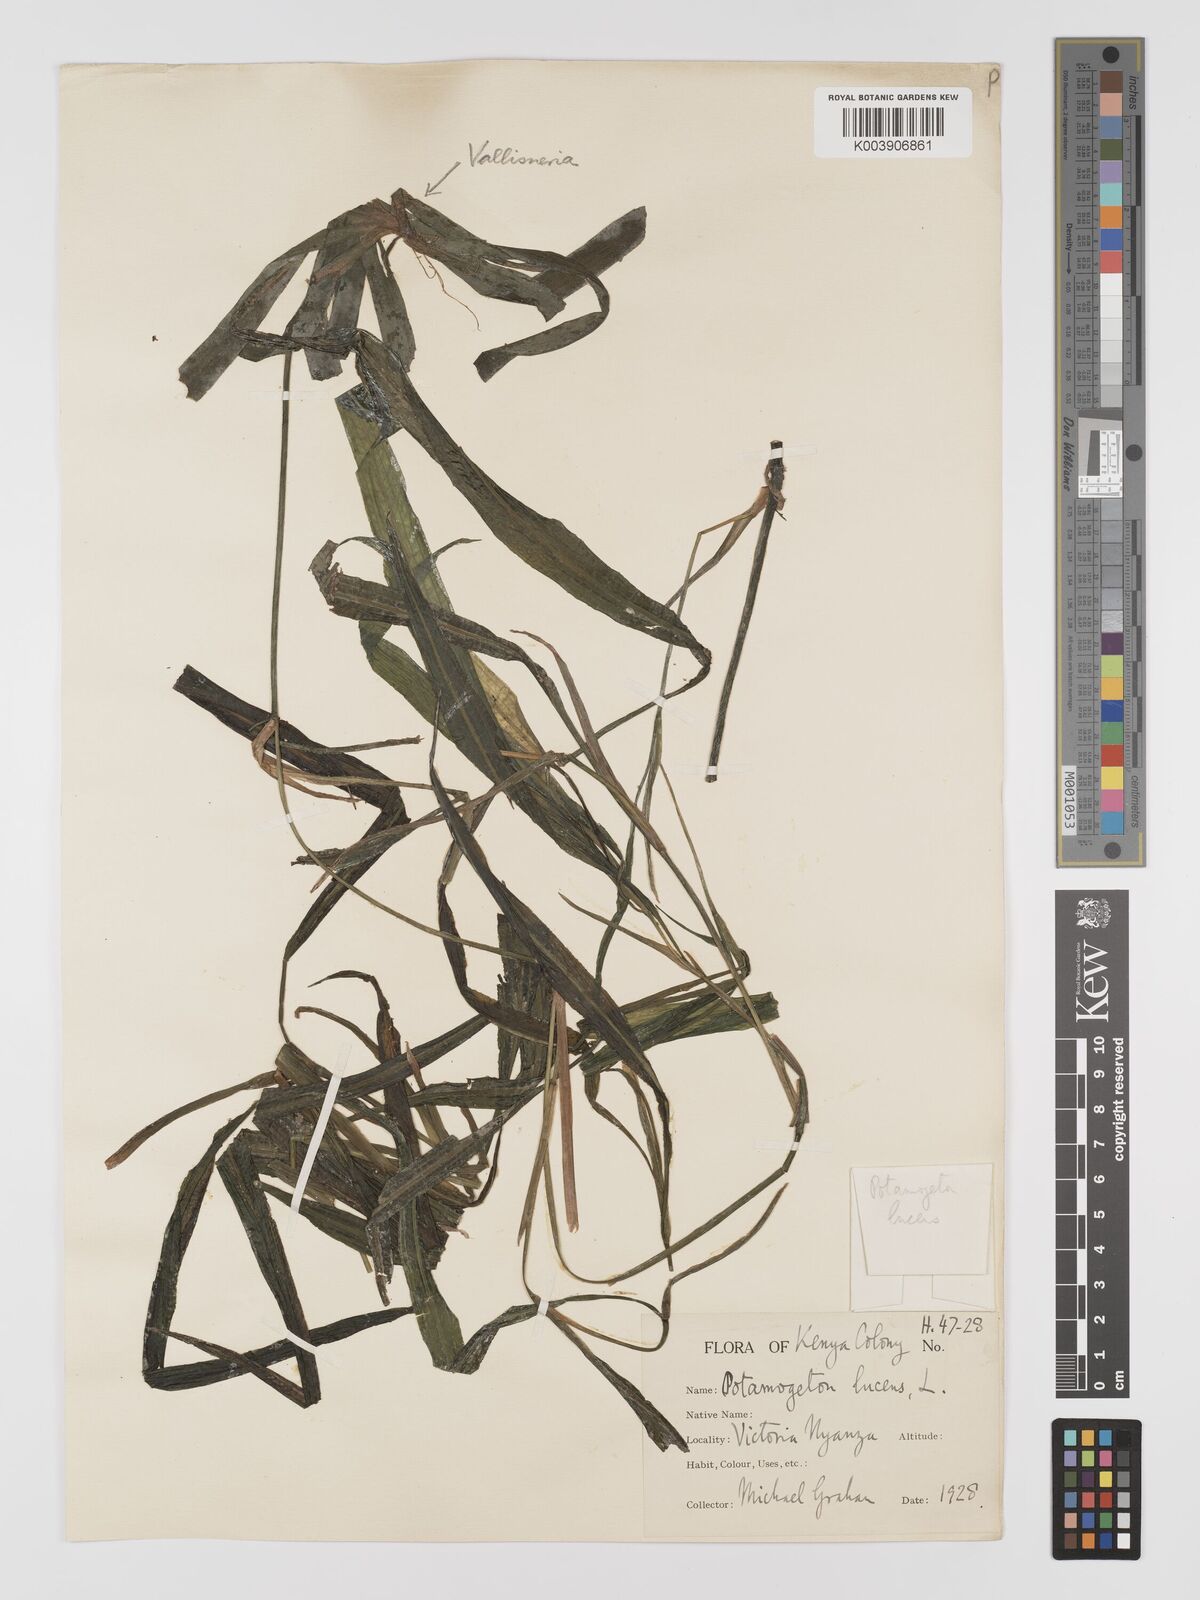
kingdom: Plantae
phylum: Tracheophyta
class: Liliopsida
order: Alismatales
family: Potamogetonaceae
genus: Potamogeton
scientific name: Potamogeton schweinfurthii
